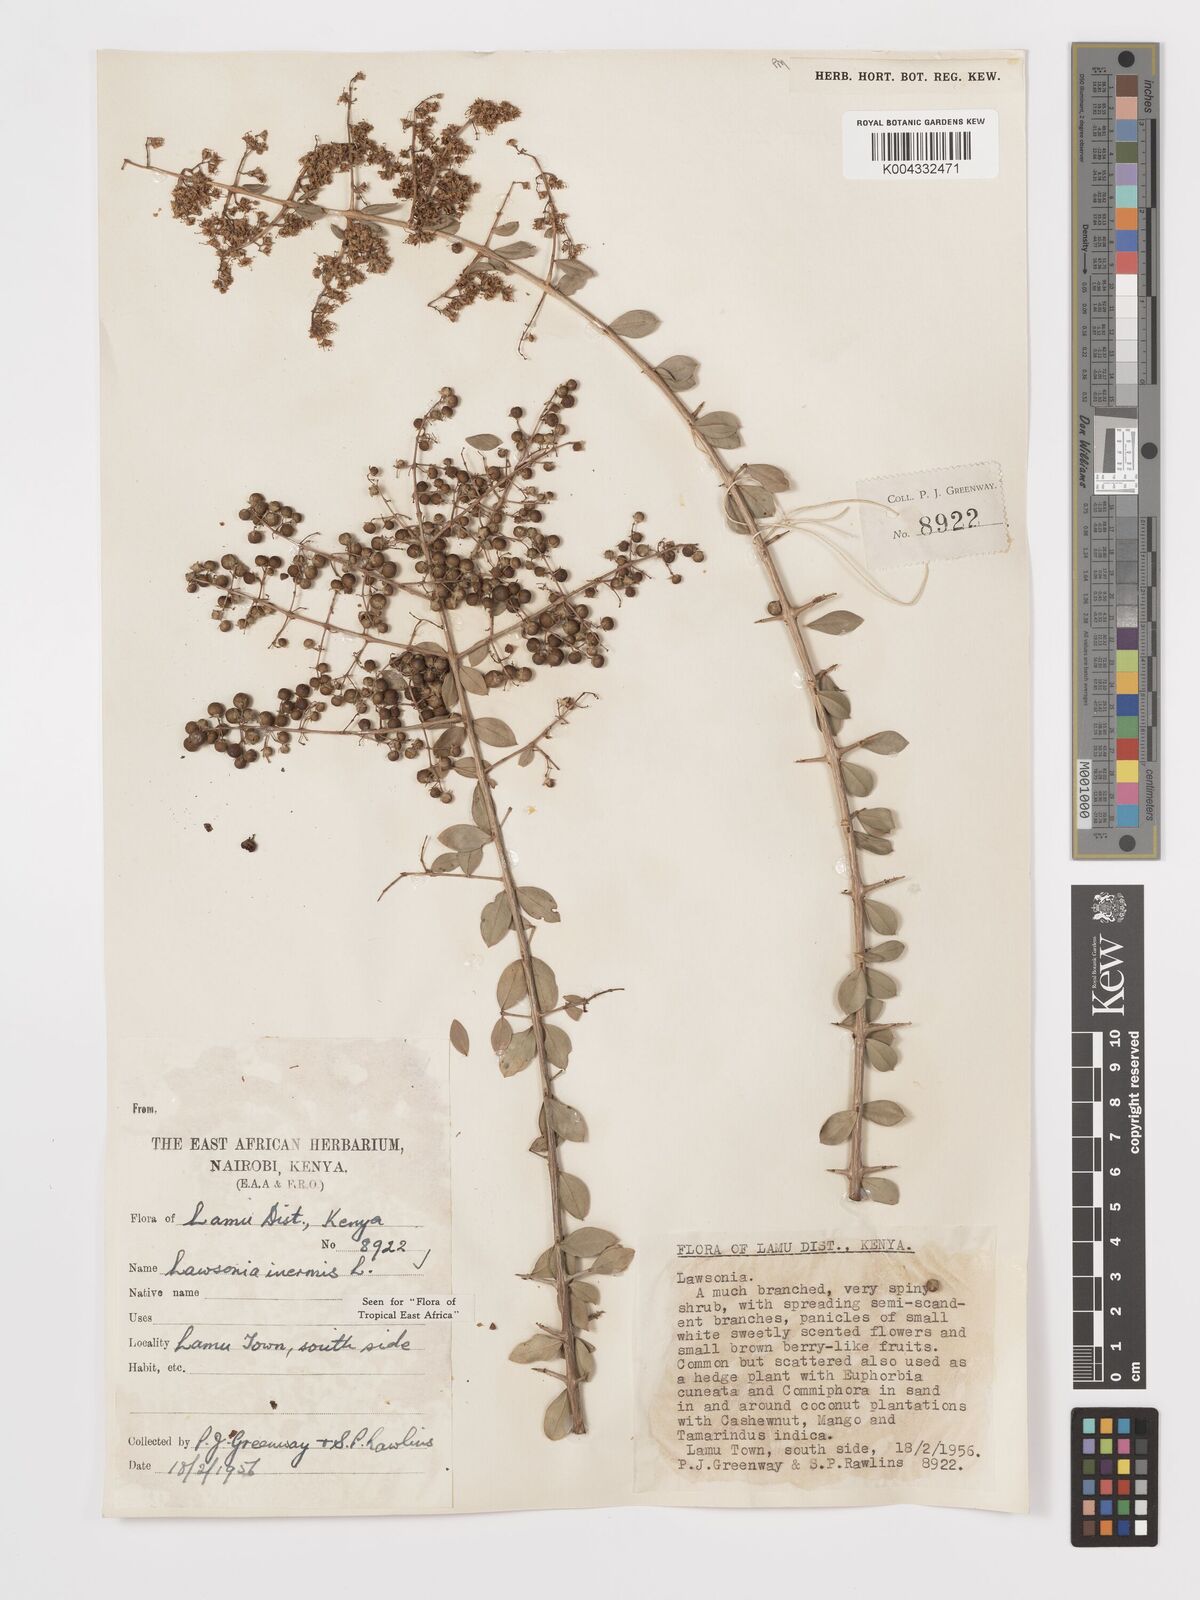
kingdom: Plantae
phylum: Tracheophyta
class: Magnoliopsida
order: Myrtales
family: Lythraceae
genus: Lawsonia
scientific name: Lawsonia inermis
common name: Henna
